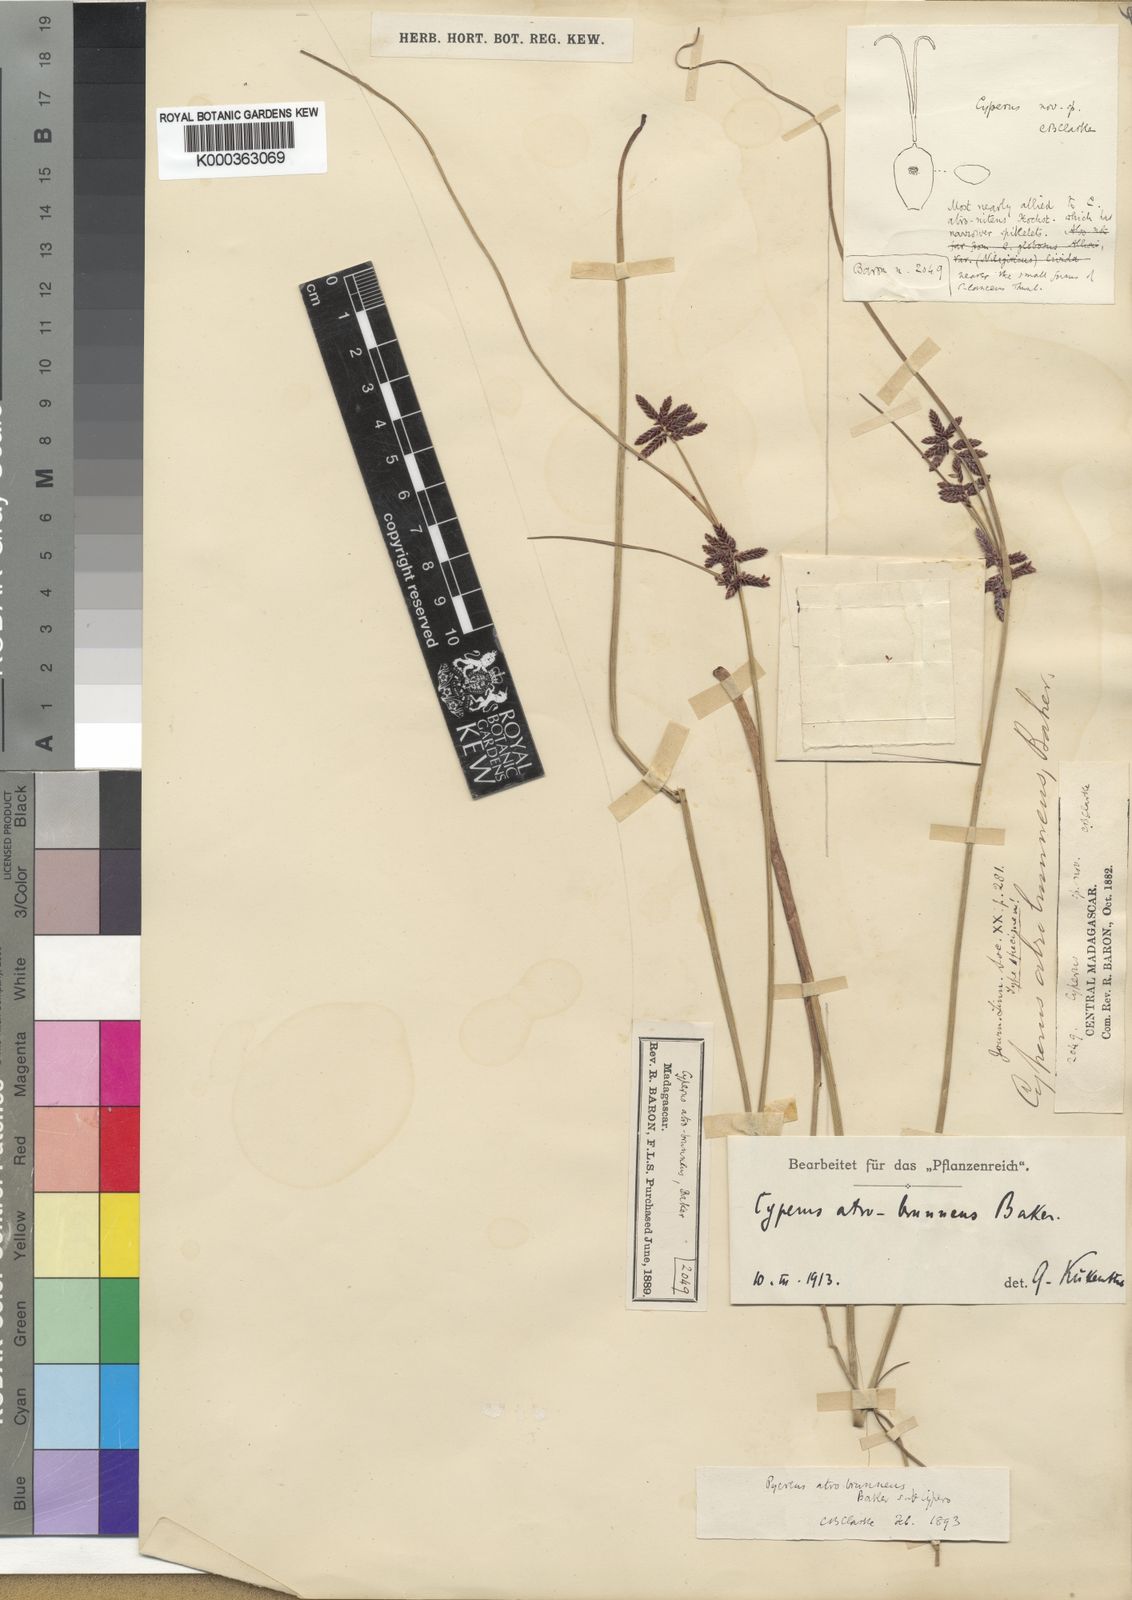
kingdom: Plantae
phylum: Tracheophyta
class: Liliopsida
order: Poales
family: Cyperaceae
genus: Cyperus
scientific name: Cyperus atrobrunneus
